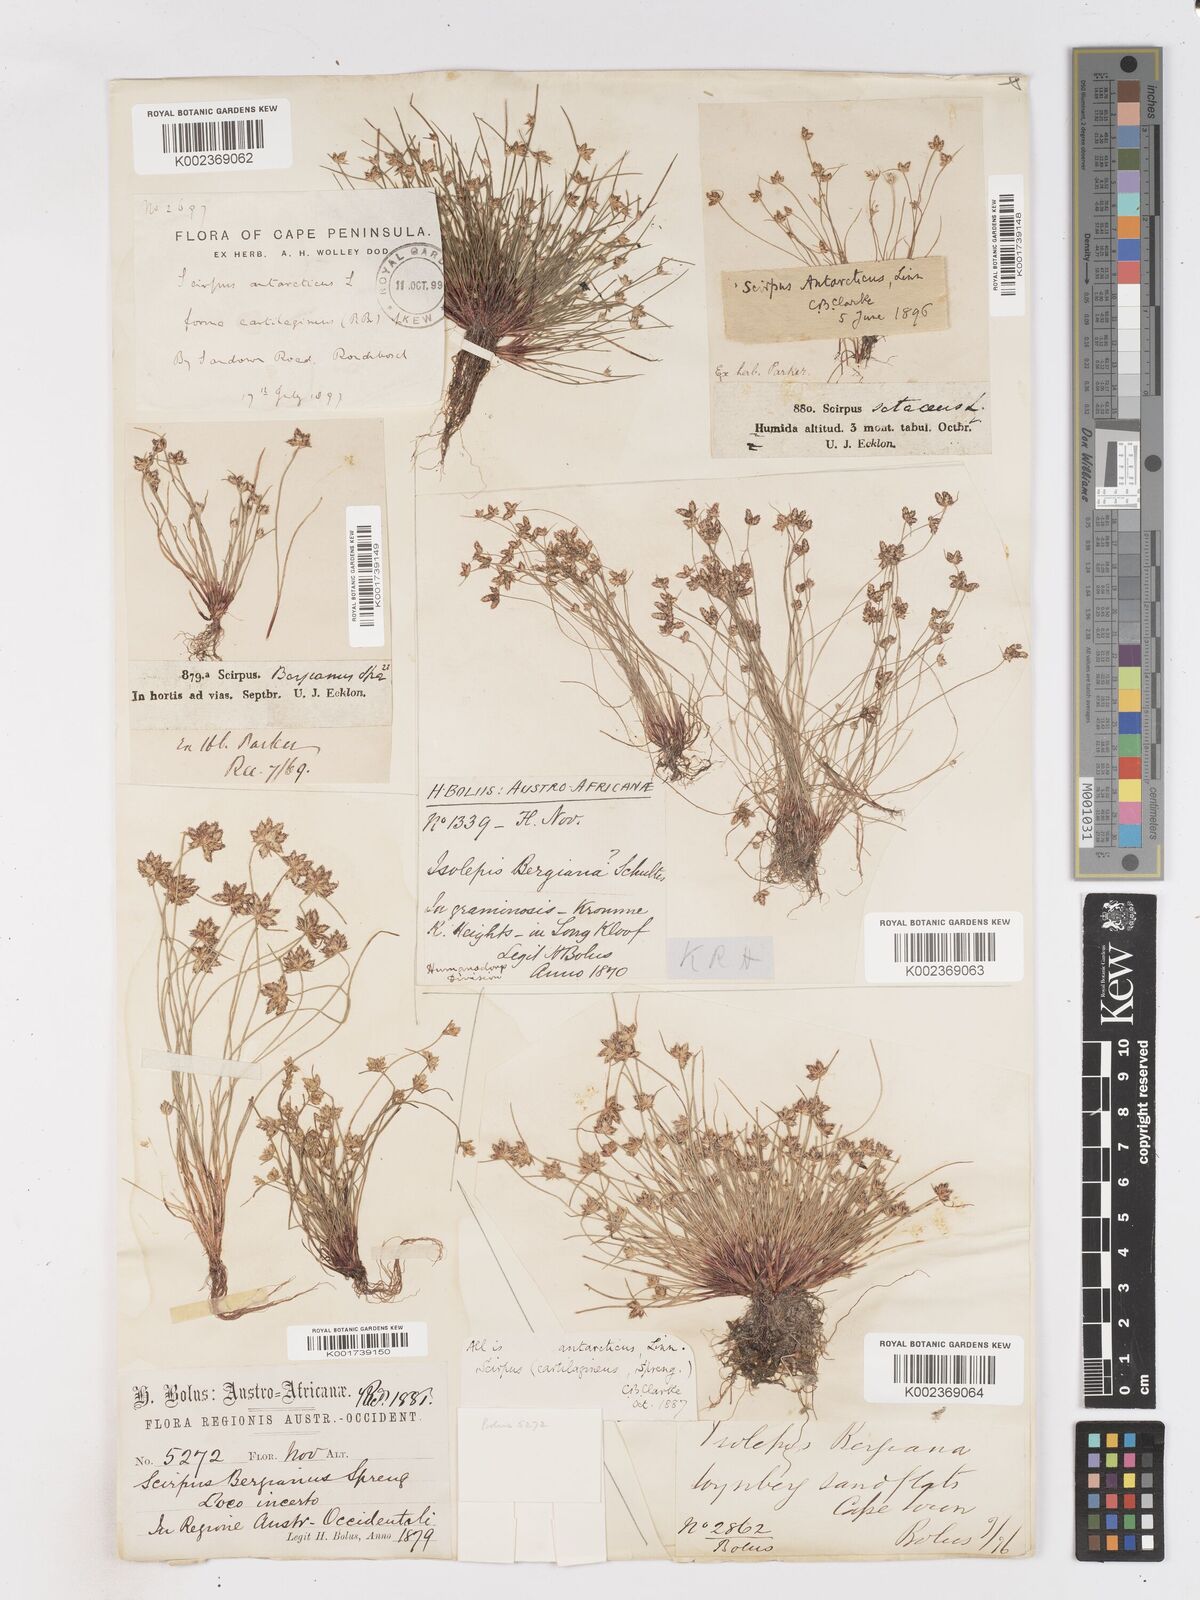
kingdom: Plantae
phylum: Tracheophyta
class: Liliopsida
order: Poales
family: Cyperaceae
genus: Isolepis
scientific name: Isolepis diabolica
